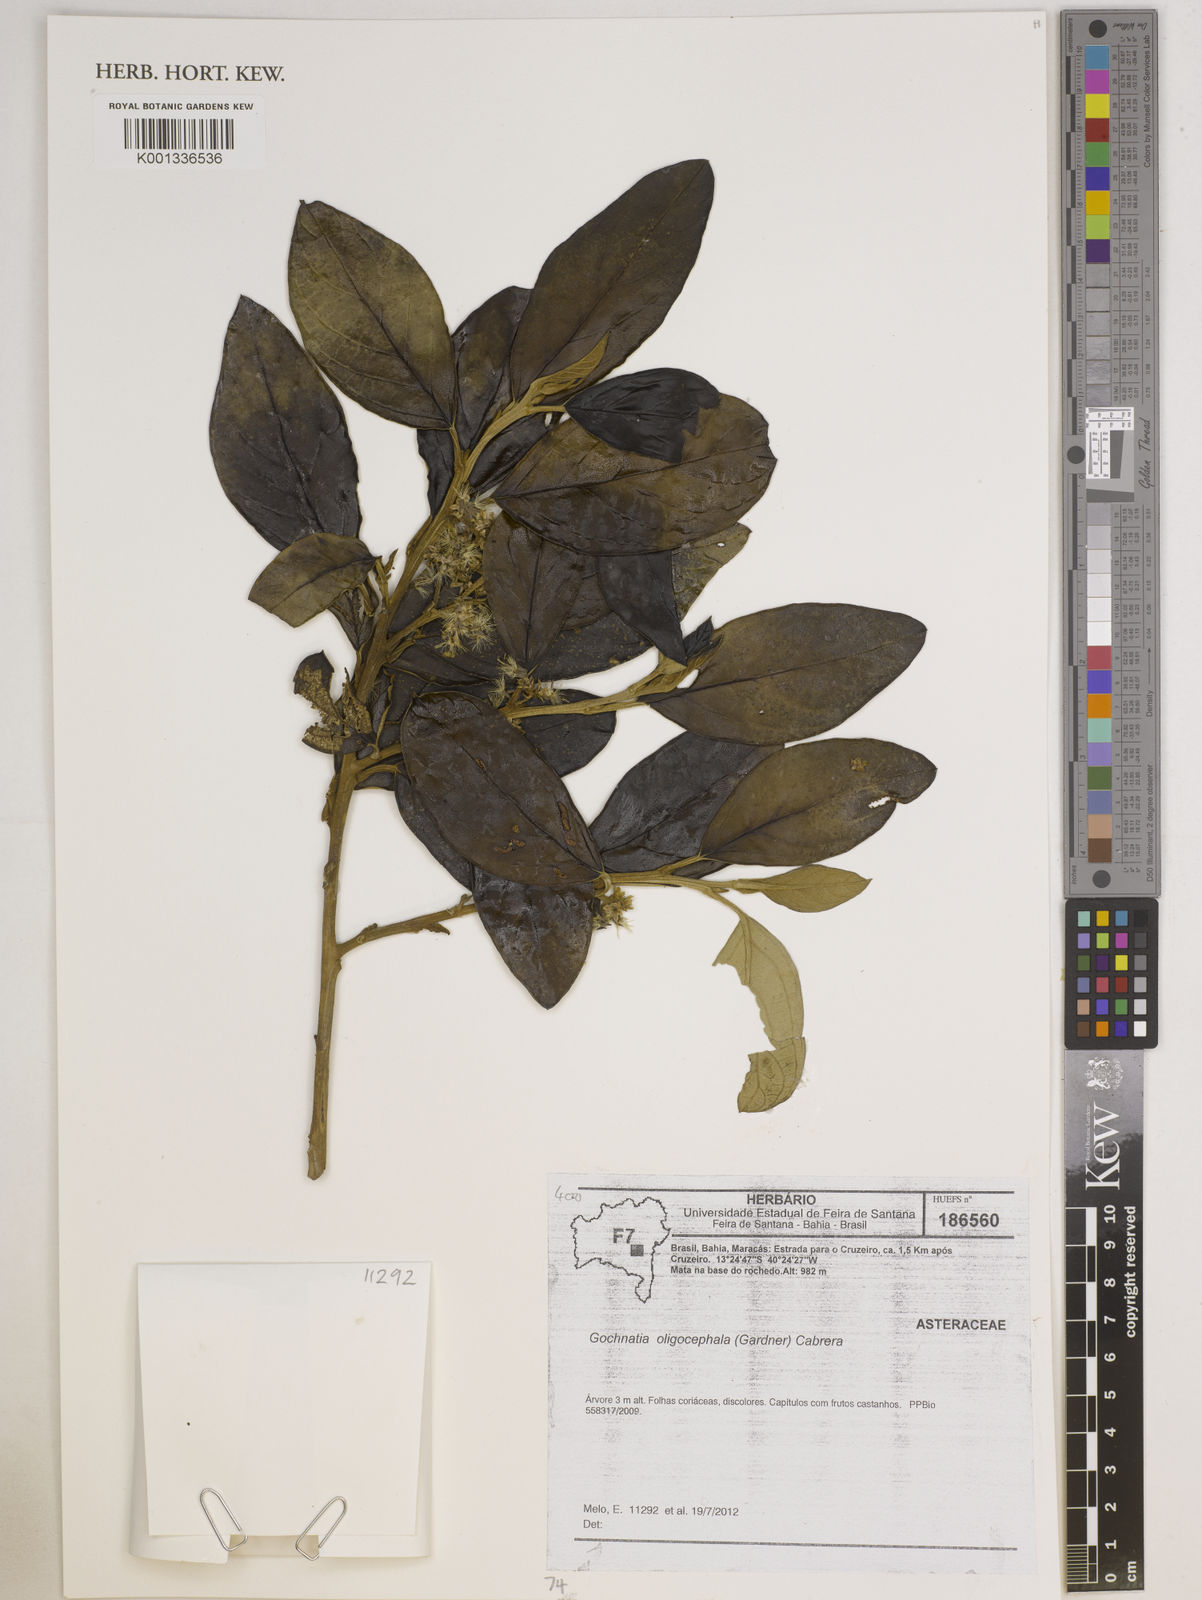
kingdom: Plantae
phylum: Tracheophyta
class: Magnoliopsida
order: Asterales
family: Asteraceae
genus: Moquiniastrum
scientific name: Moquiniastrum oligocephalum
